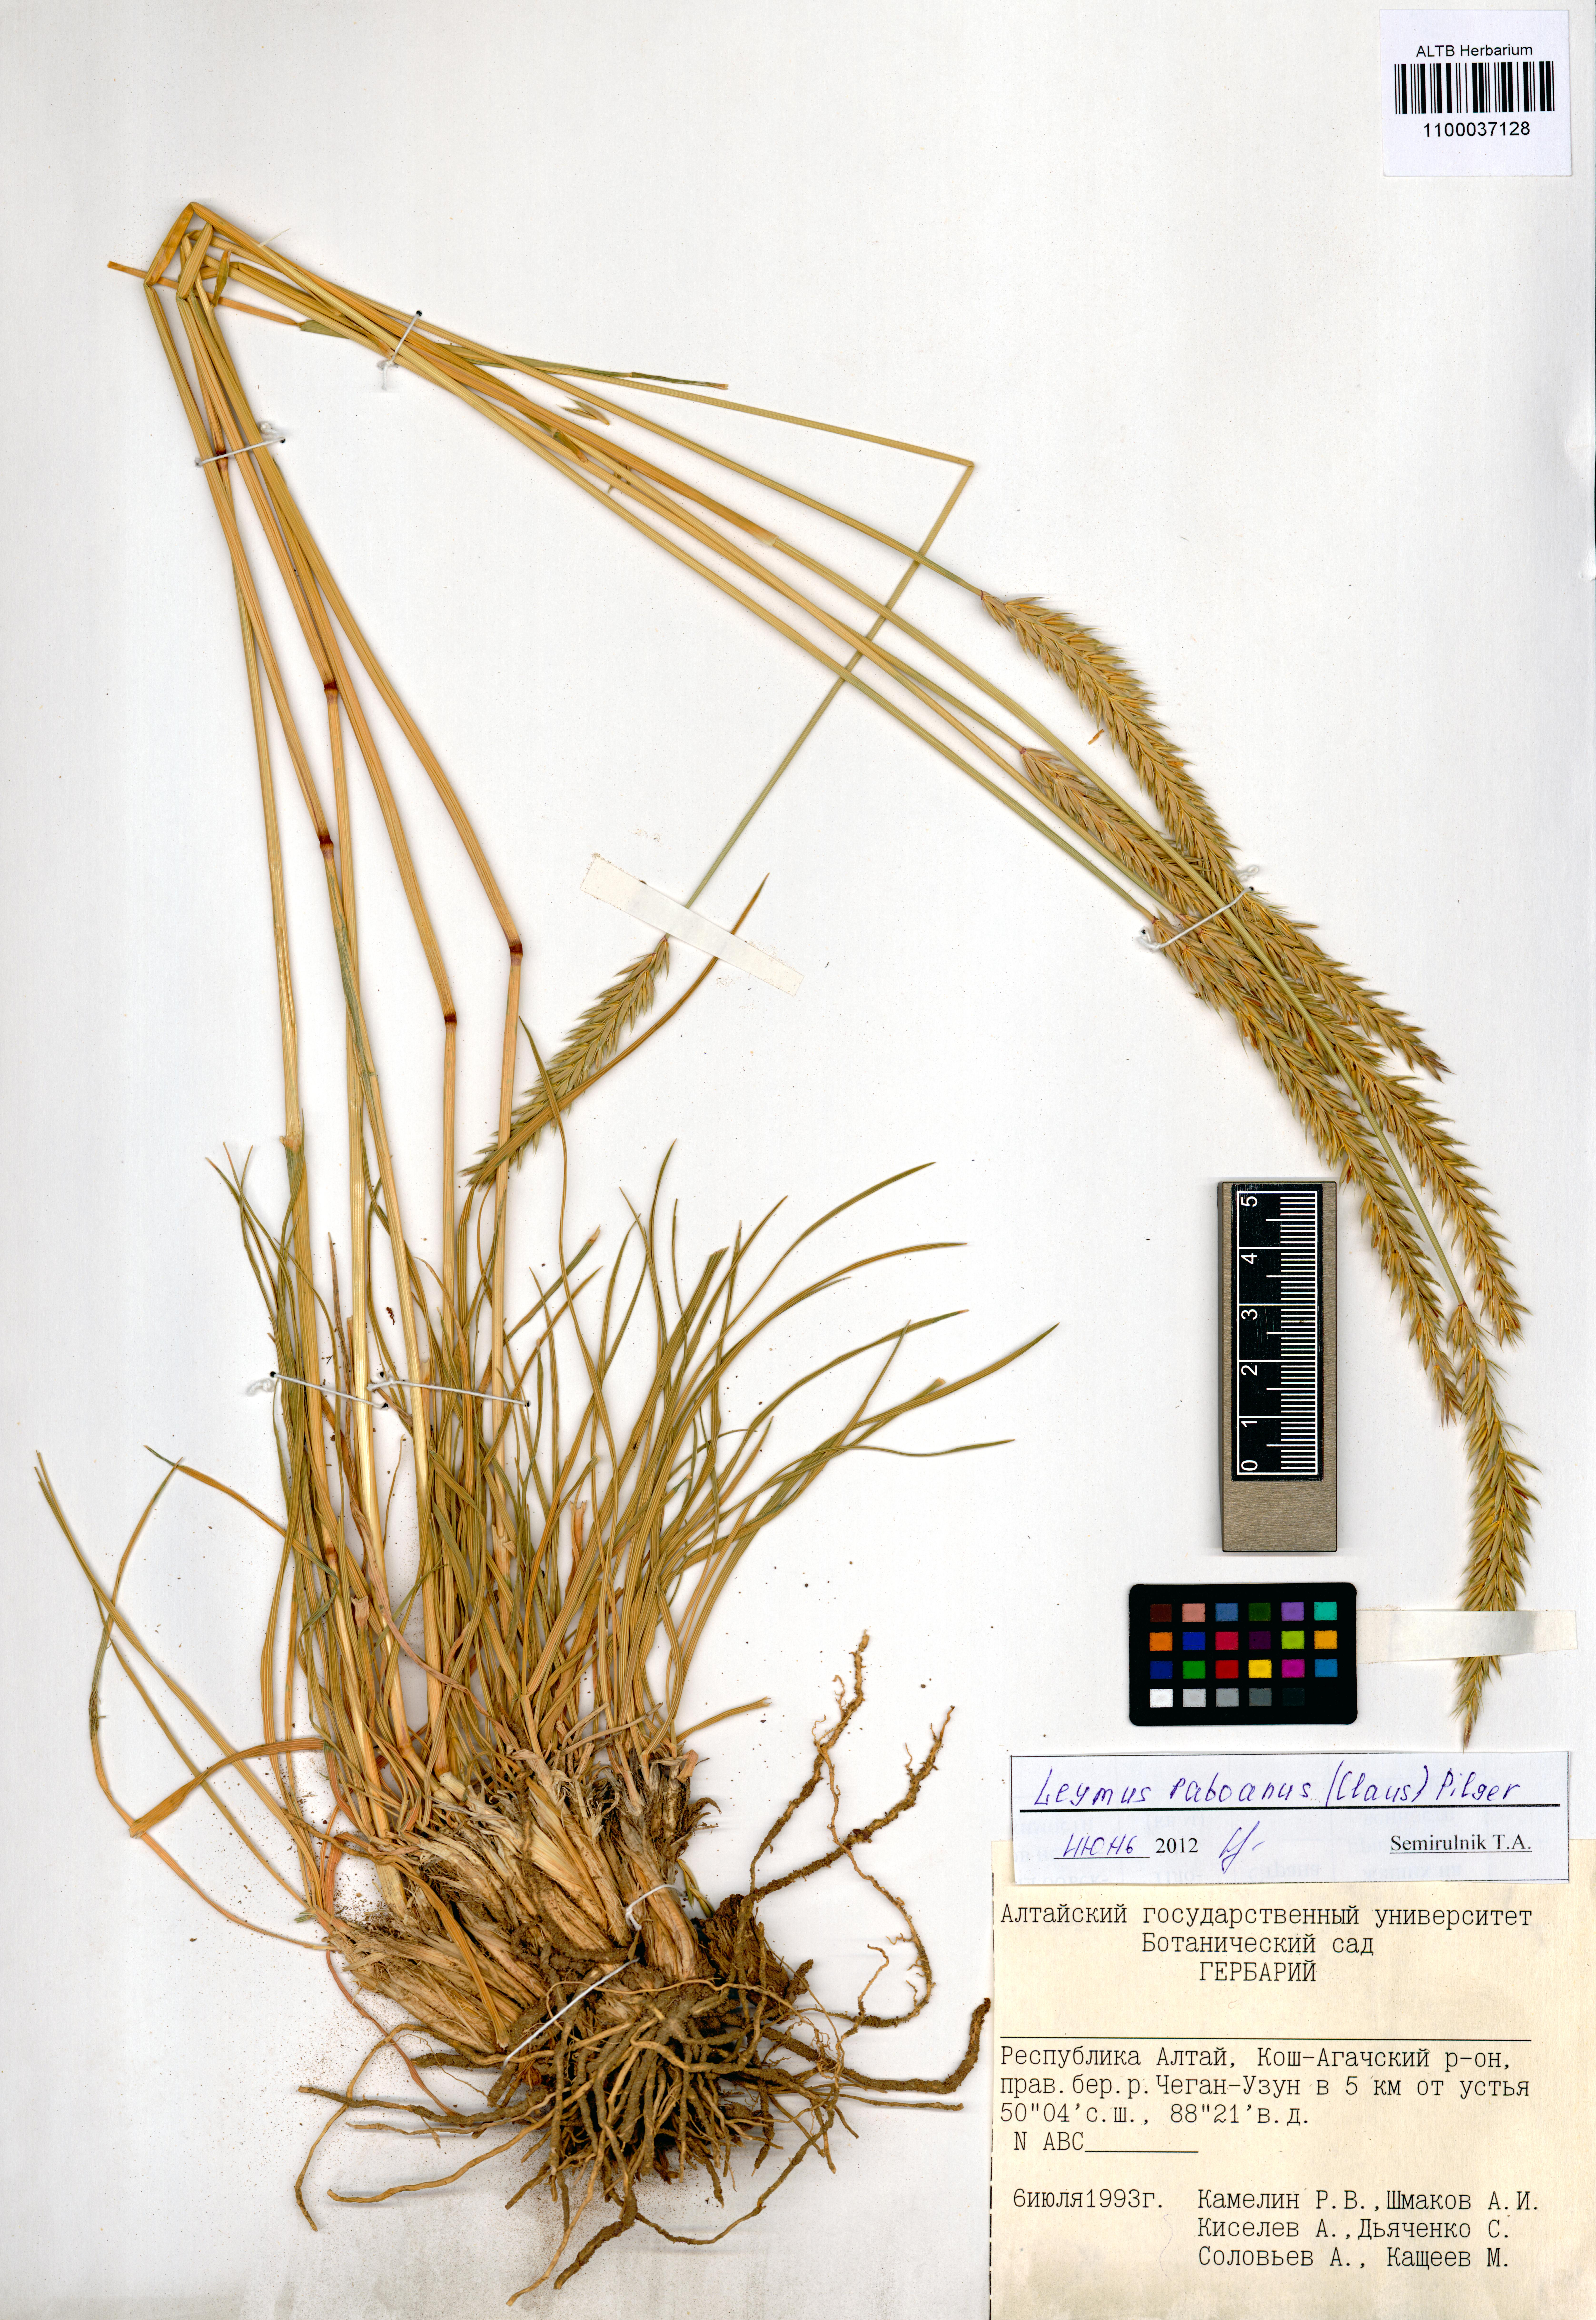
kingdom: Plantae
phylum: Tracheophyta
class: Liliopsida
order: Poales
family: Poaceae
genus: Leymus
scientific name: Leymus paboanus
